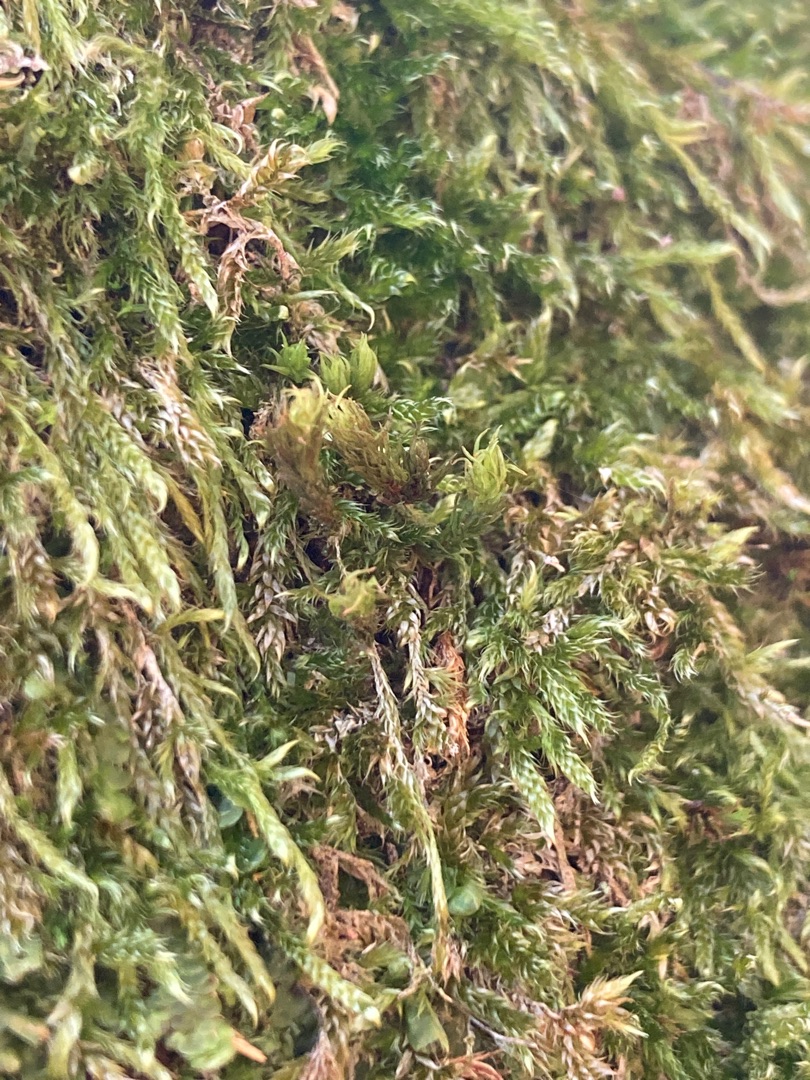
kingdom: Plantae
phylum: Bryophyta
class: Bryopsida
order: Orthotrichales
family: Orthotrichaceae
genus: Pulvigera
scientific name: Pulvigera lyellii
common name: Stor furehætte
